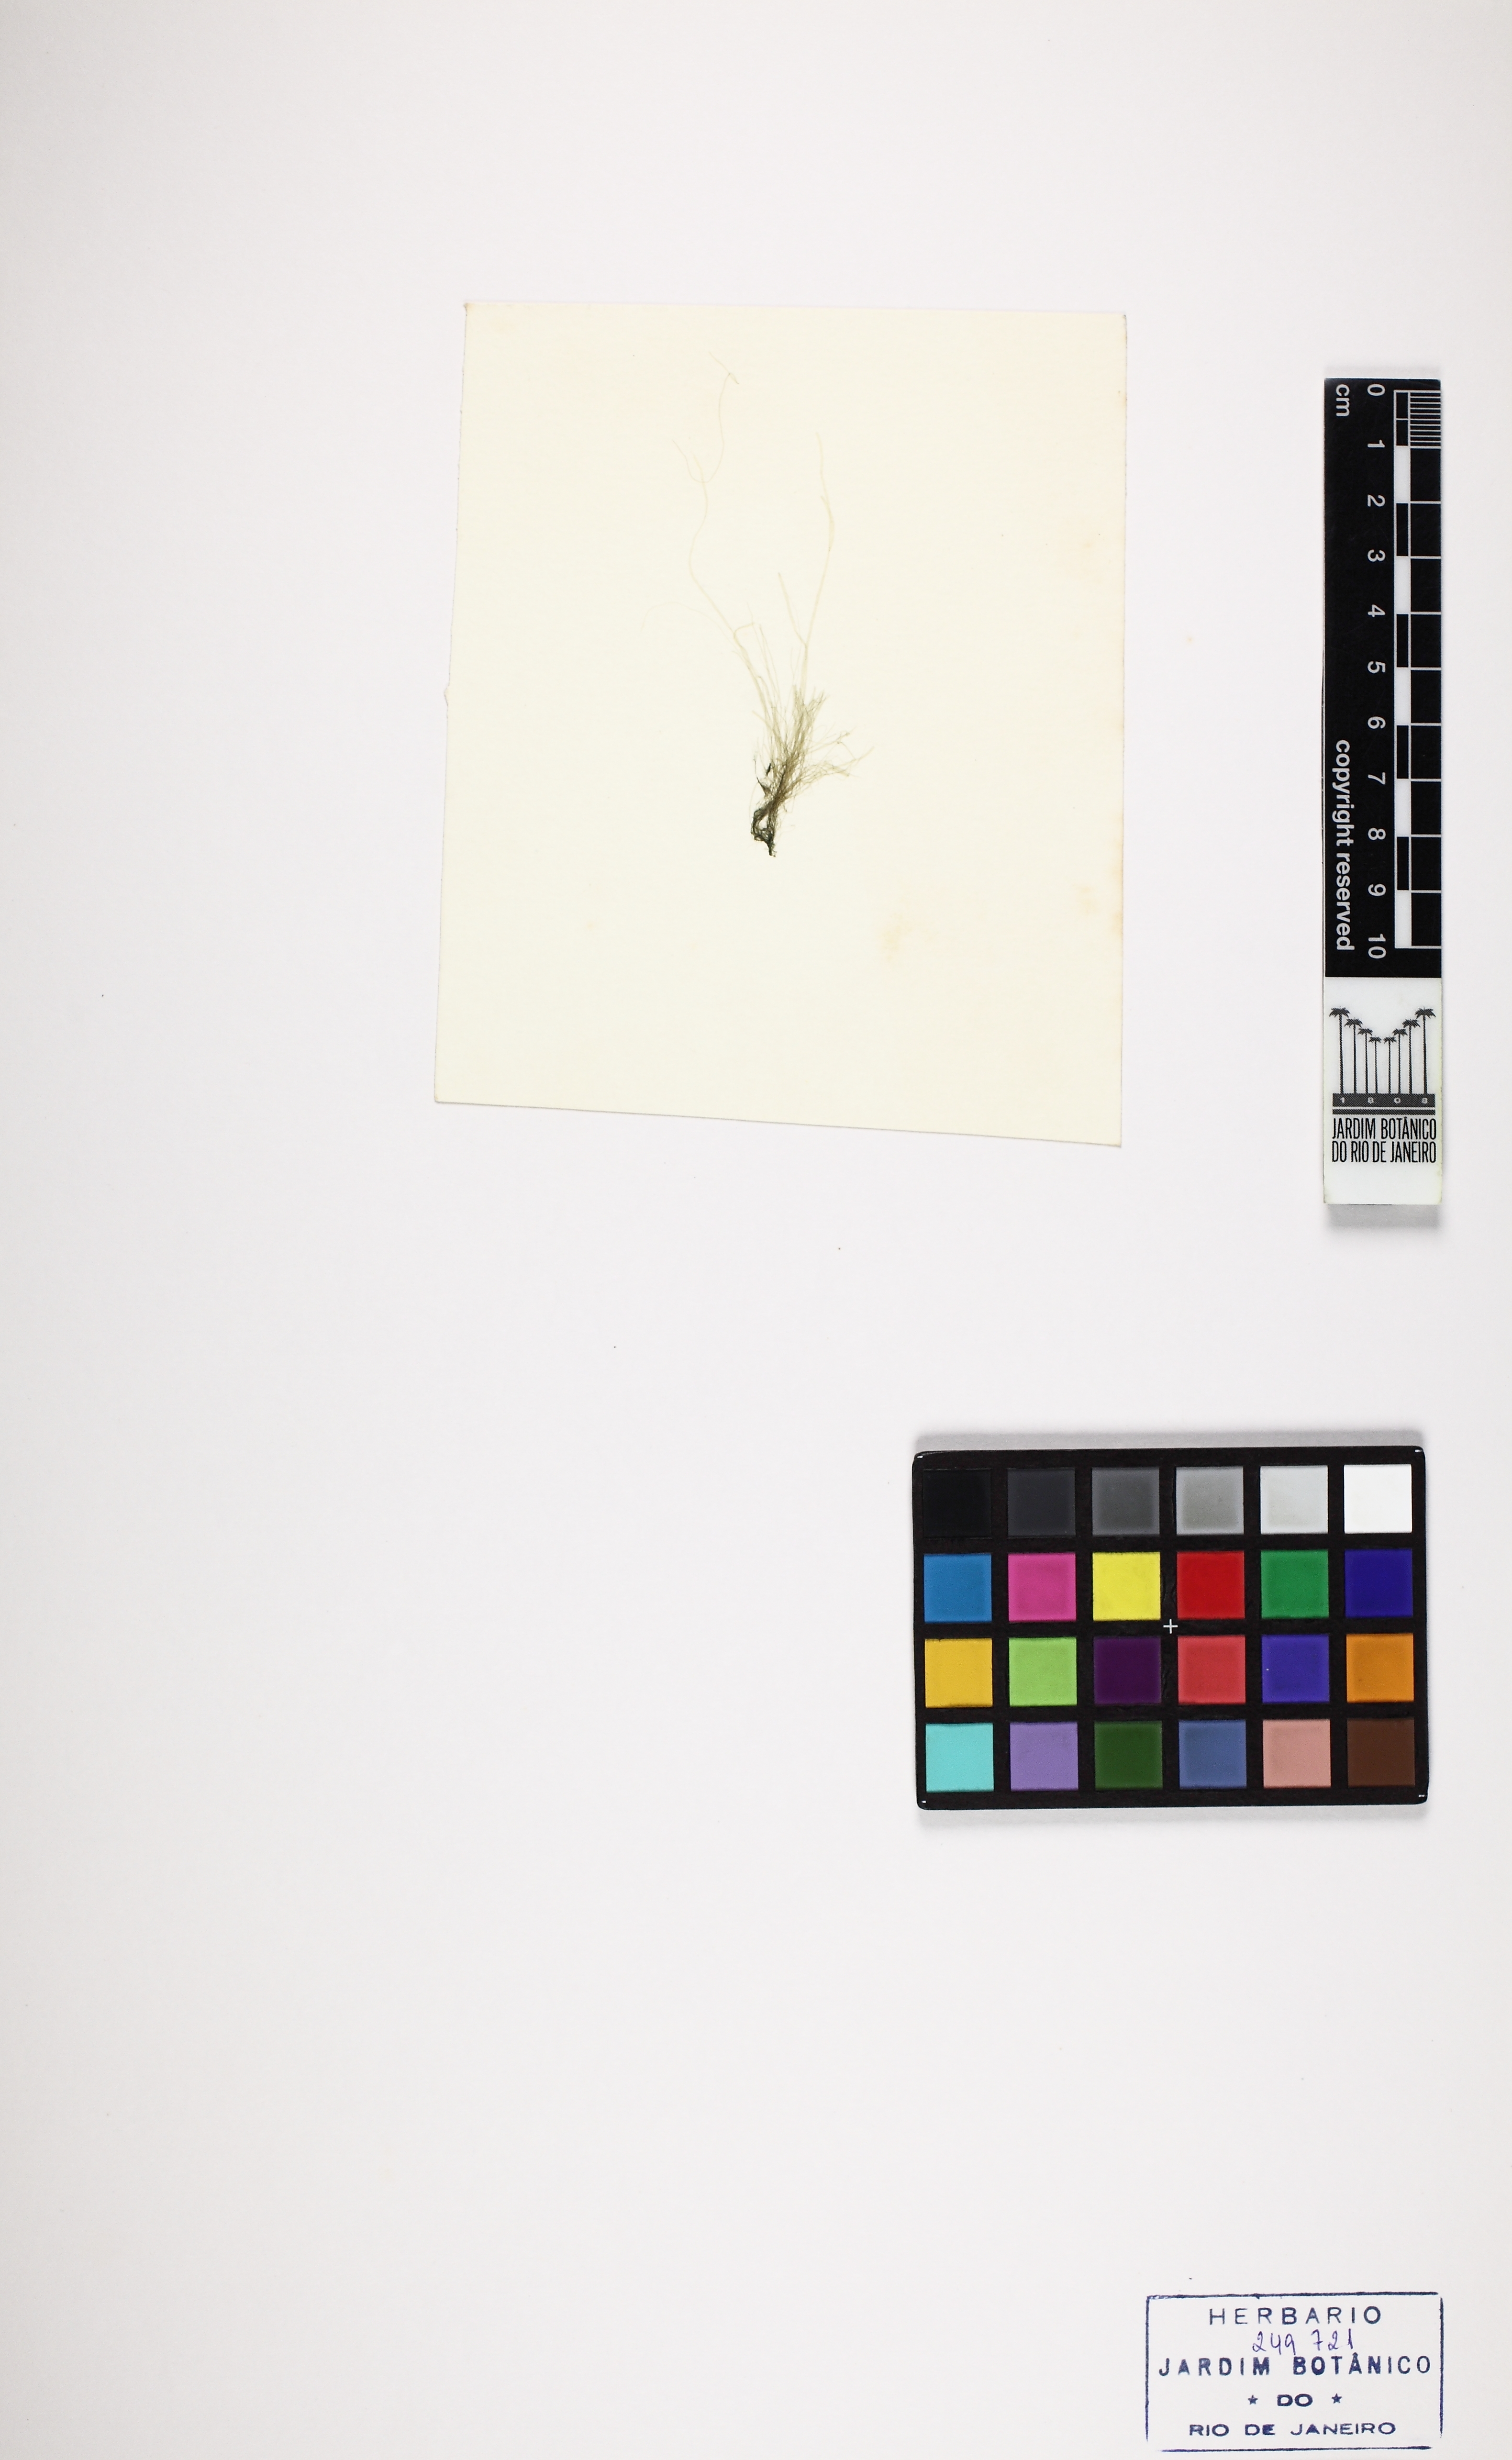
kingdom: Plantae
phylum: Chlorophyta
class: Ulvophyceae
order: Ulvales
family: Ulvaceae
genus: Ulva
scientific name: Ulva flexuosa
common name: Flexuous gutweed
